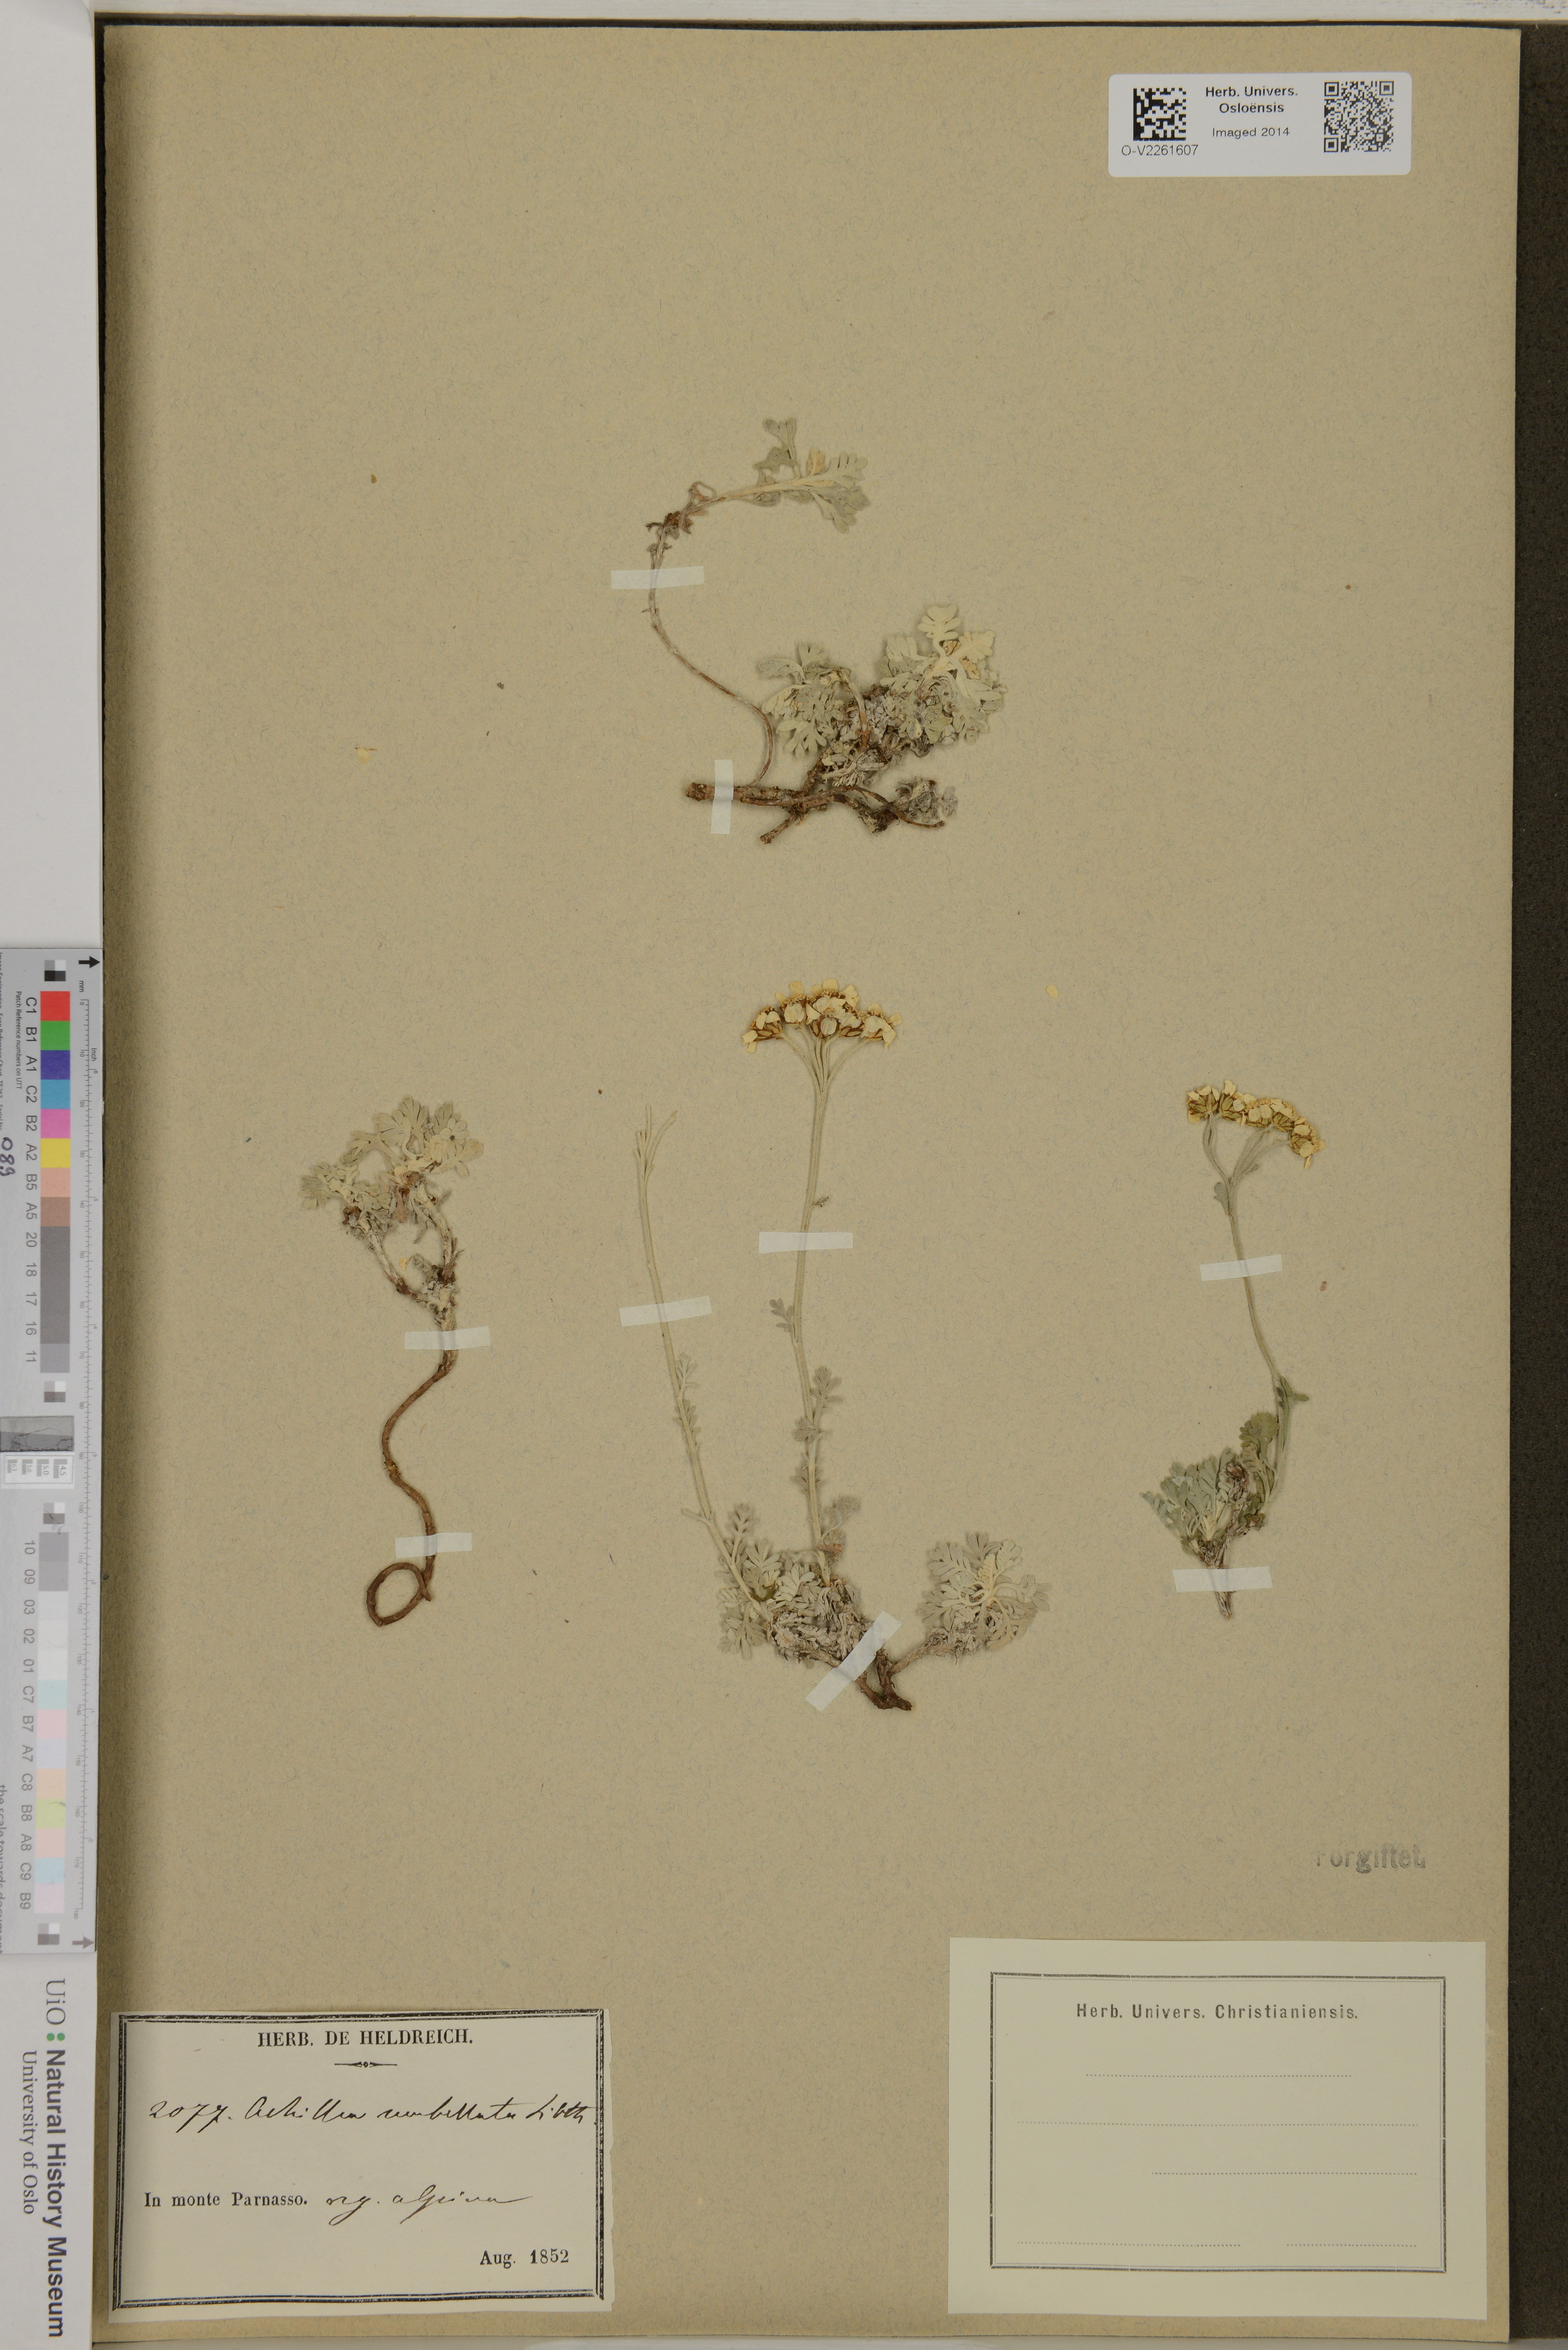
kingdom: Plantae
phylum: Tracheophyta
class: Magnoliopsida
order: Asterales
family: Asteraceae
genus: Achillea
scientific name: Achillea umbellata
